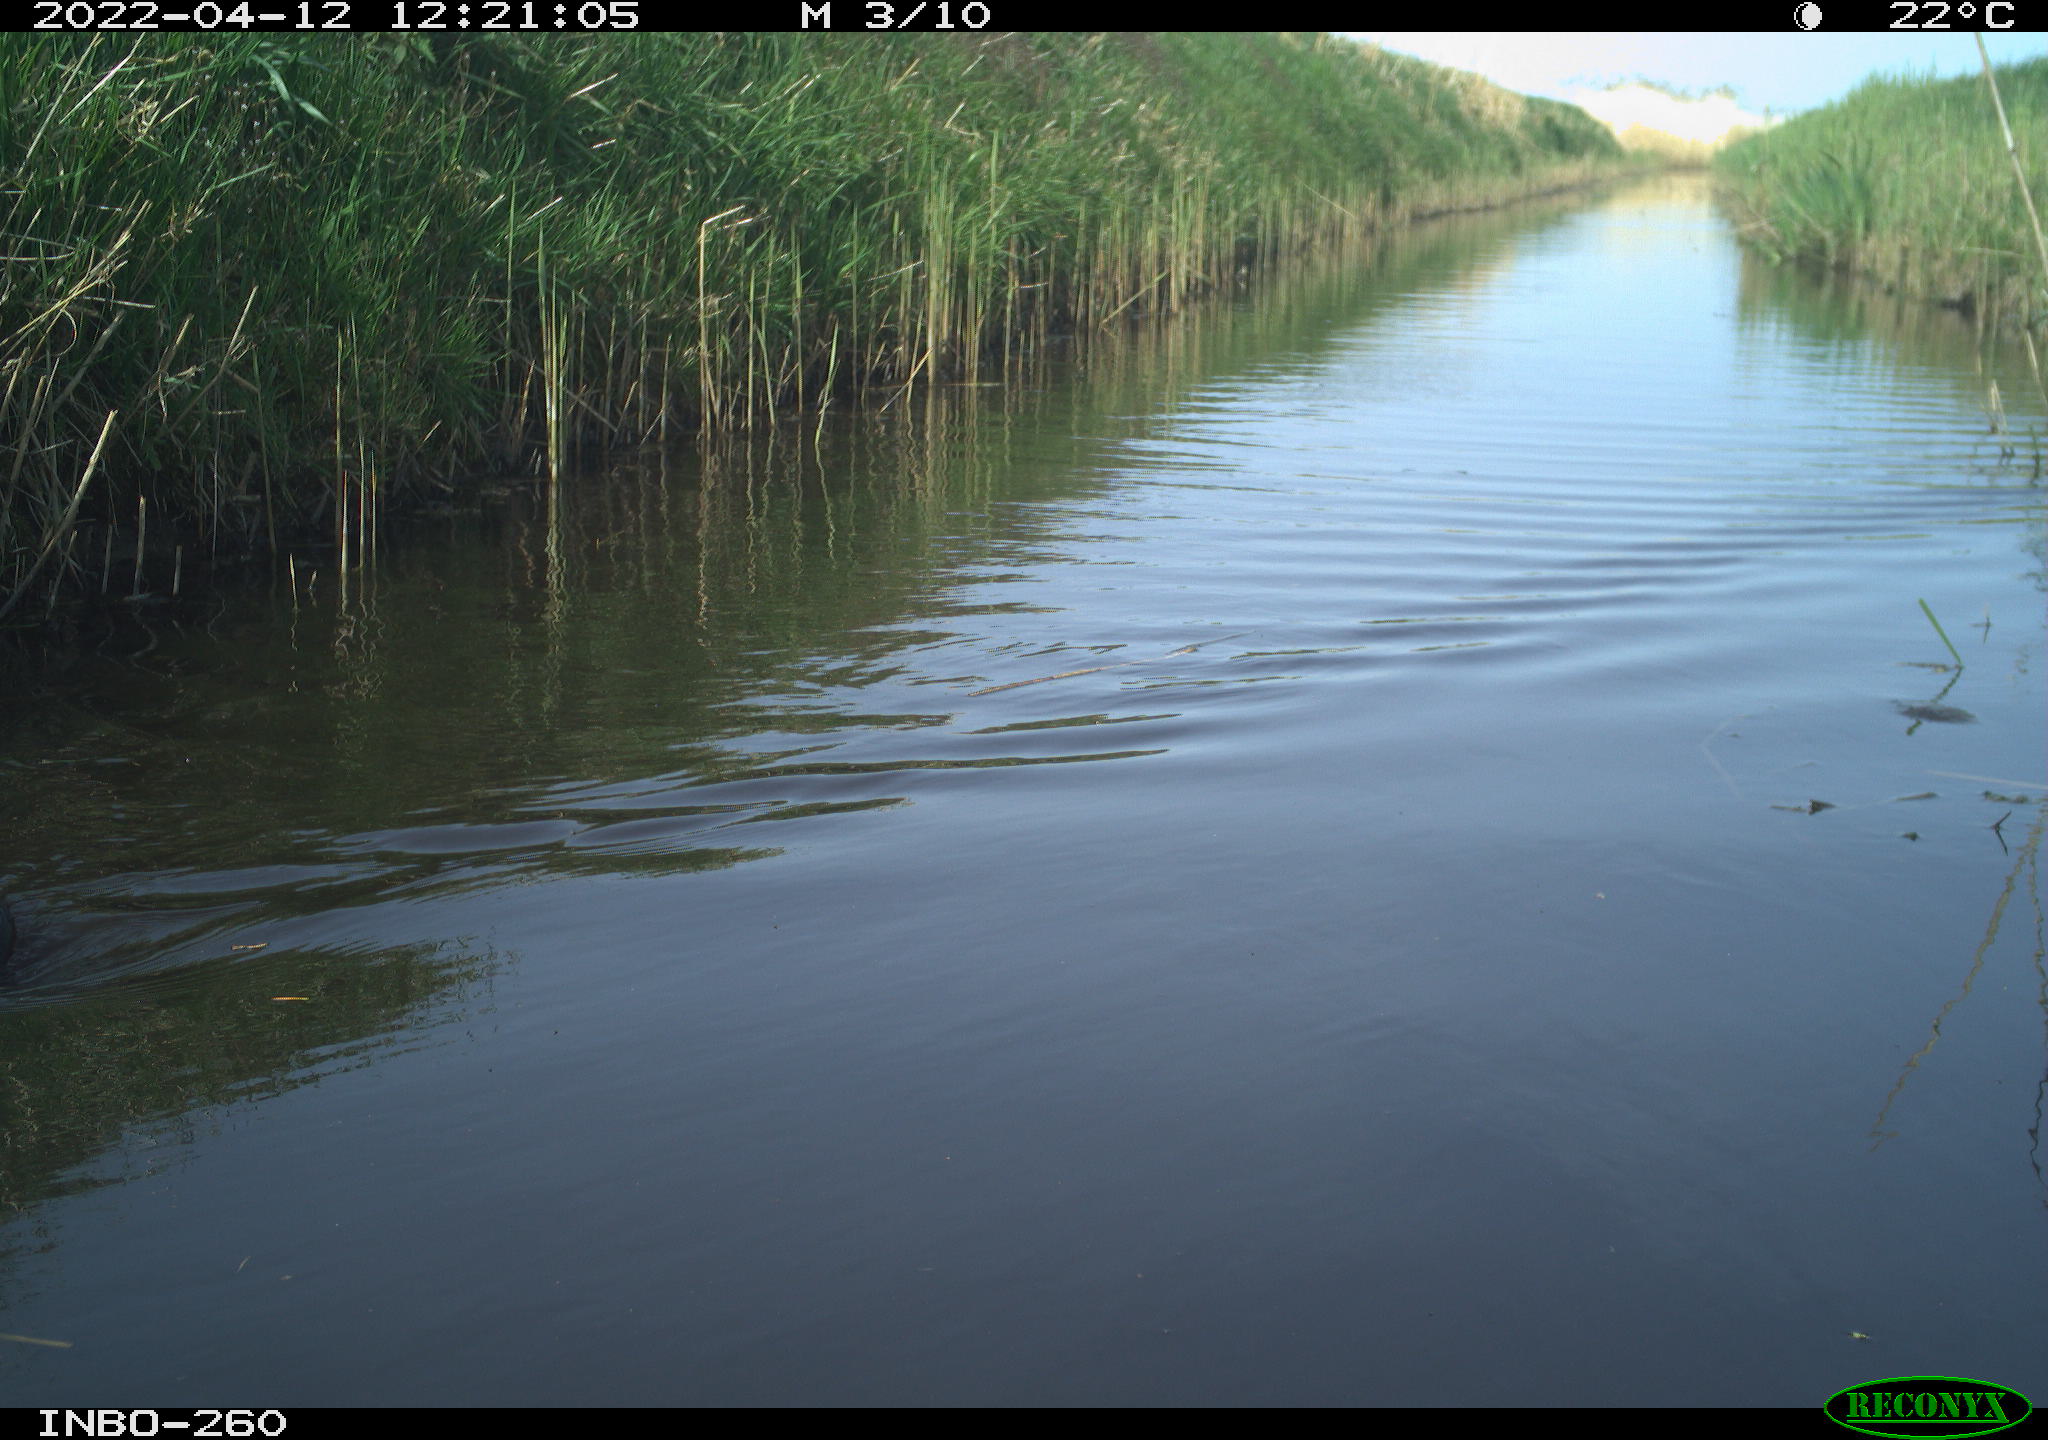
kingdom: Animalia
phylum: Chordata
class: Aves
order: Gruiformes
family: Rallidae
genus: Fulica
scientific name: Fulica atra
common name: Eurasian coot
